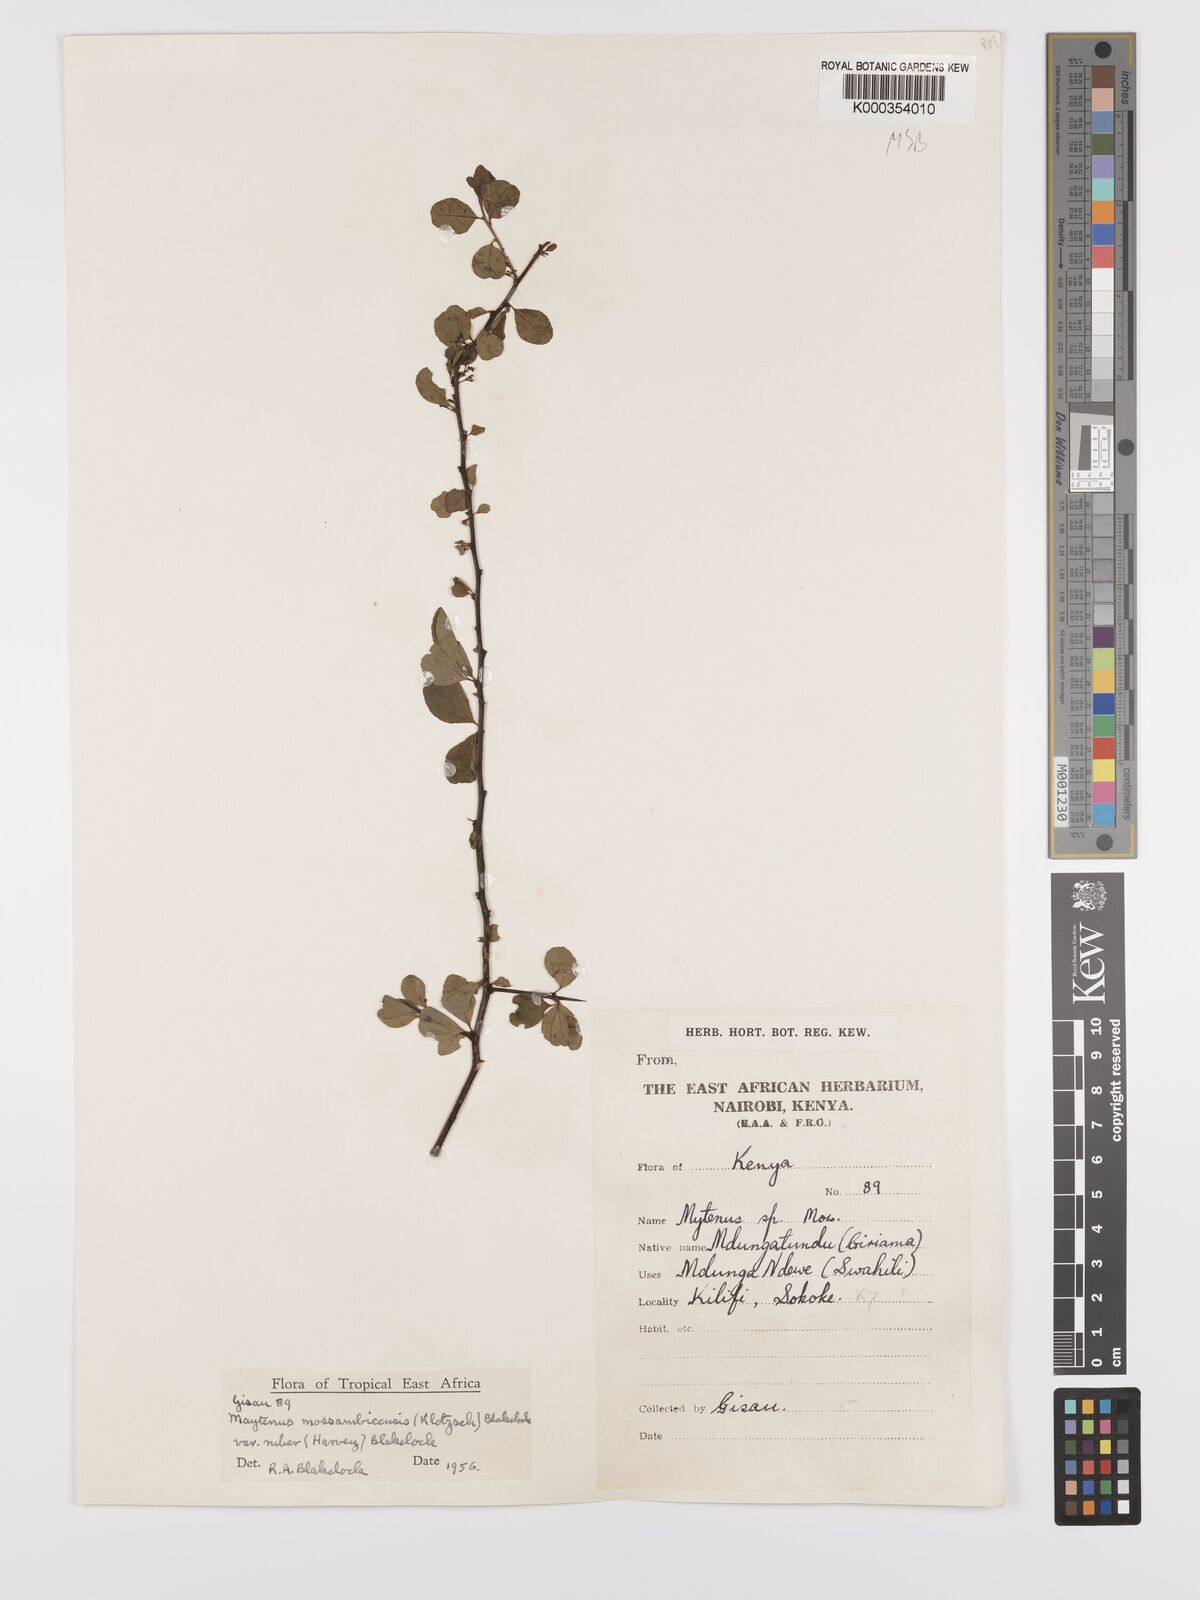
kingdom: Plantae
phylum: Tracheophyta
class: Magnoliopsida
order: Celastrales
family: Celastraceae
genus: Gymnosporia
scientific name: Gymnosporia mossambicensis
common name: Black forest spike-thorn
